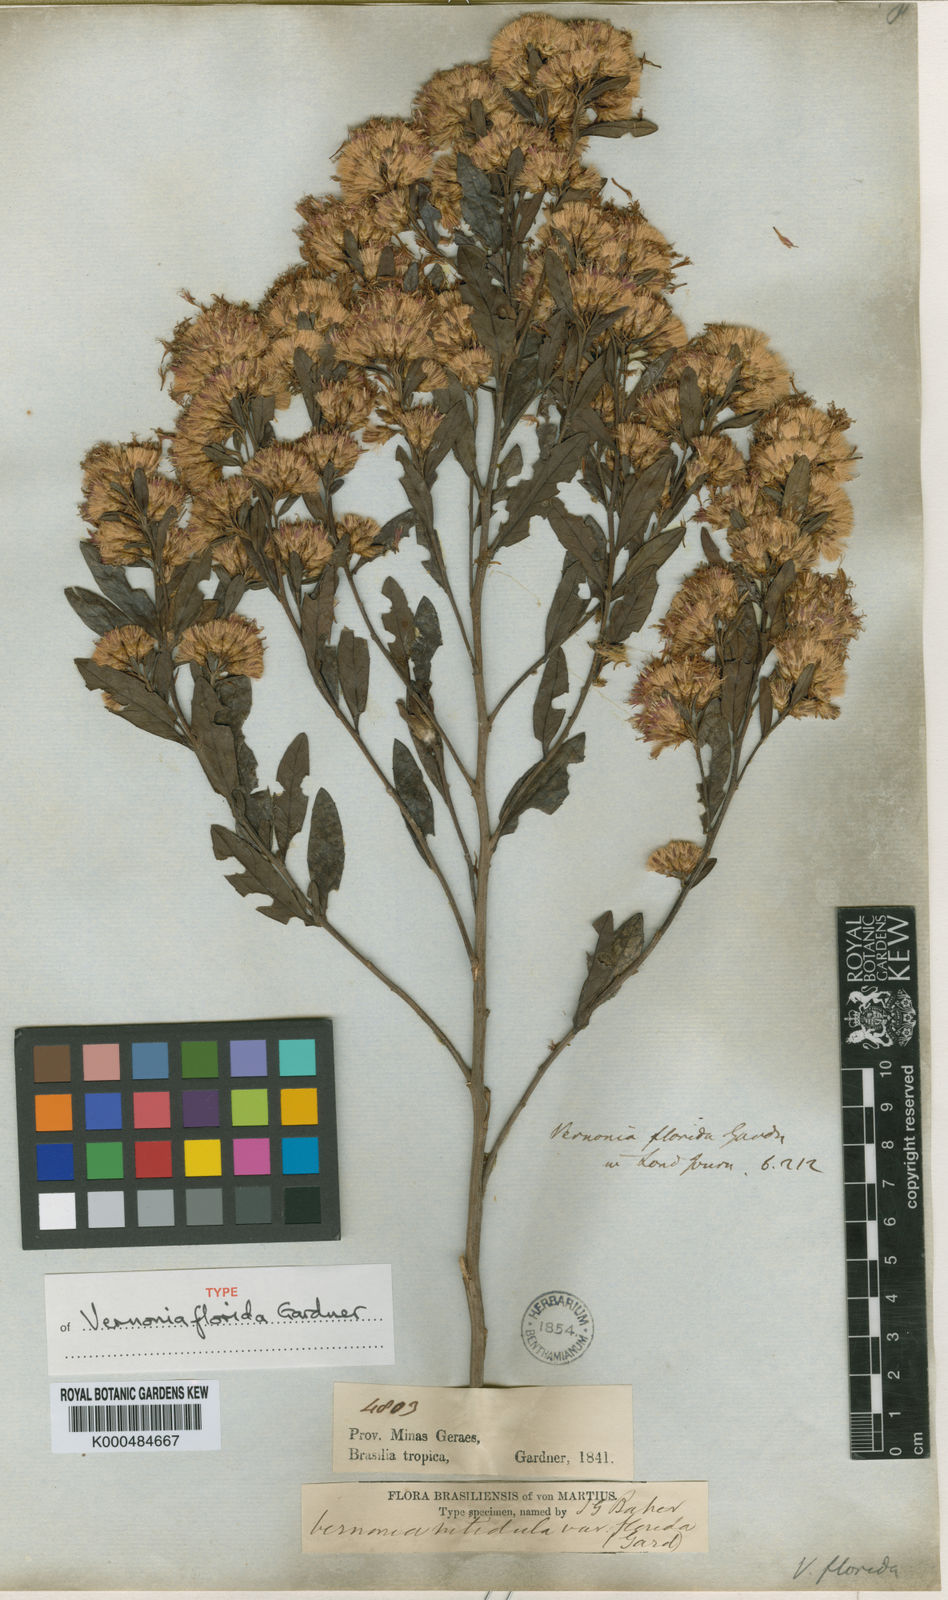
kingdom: Plantae
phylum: Tracheophyta
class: Magnoliopsida
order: Asterales
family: Asteraceae
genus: Vernonanthura
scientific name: Vernonanthura montevidensis
